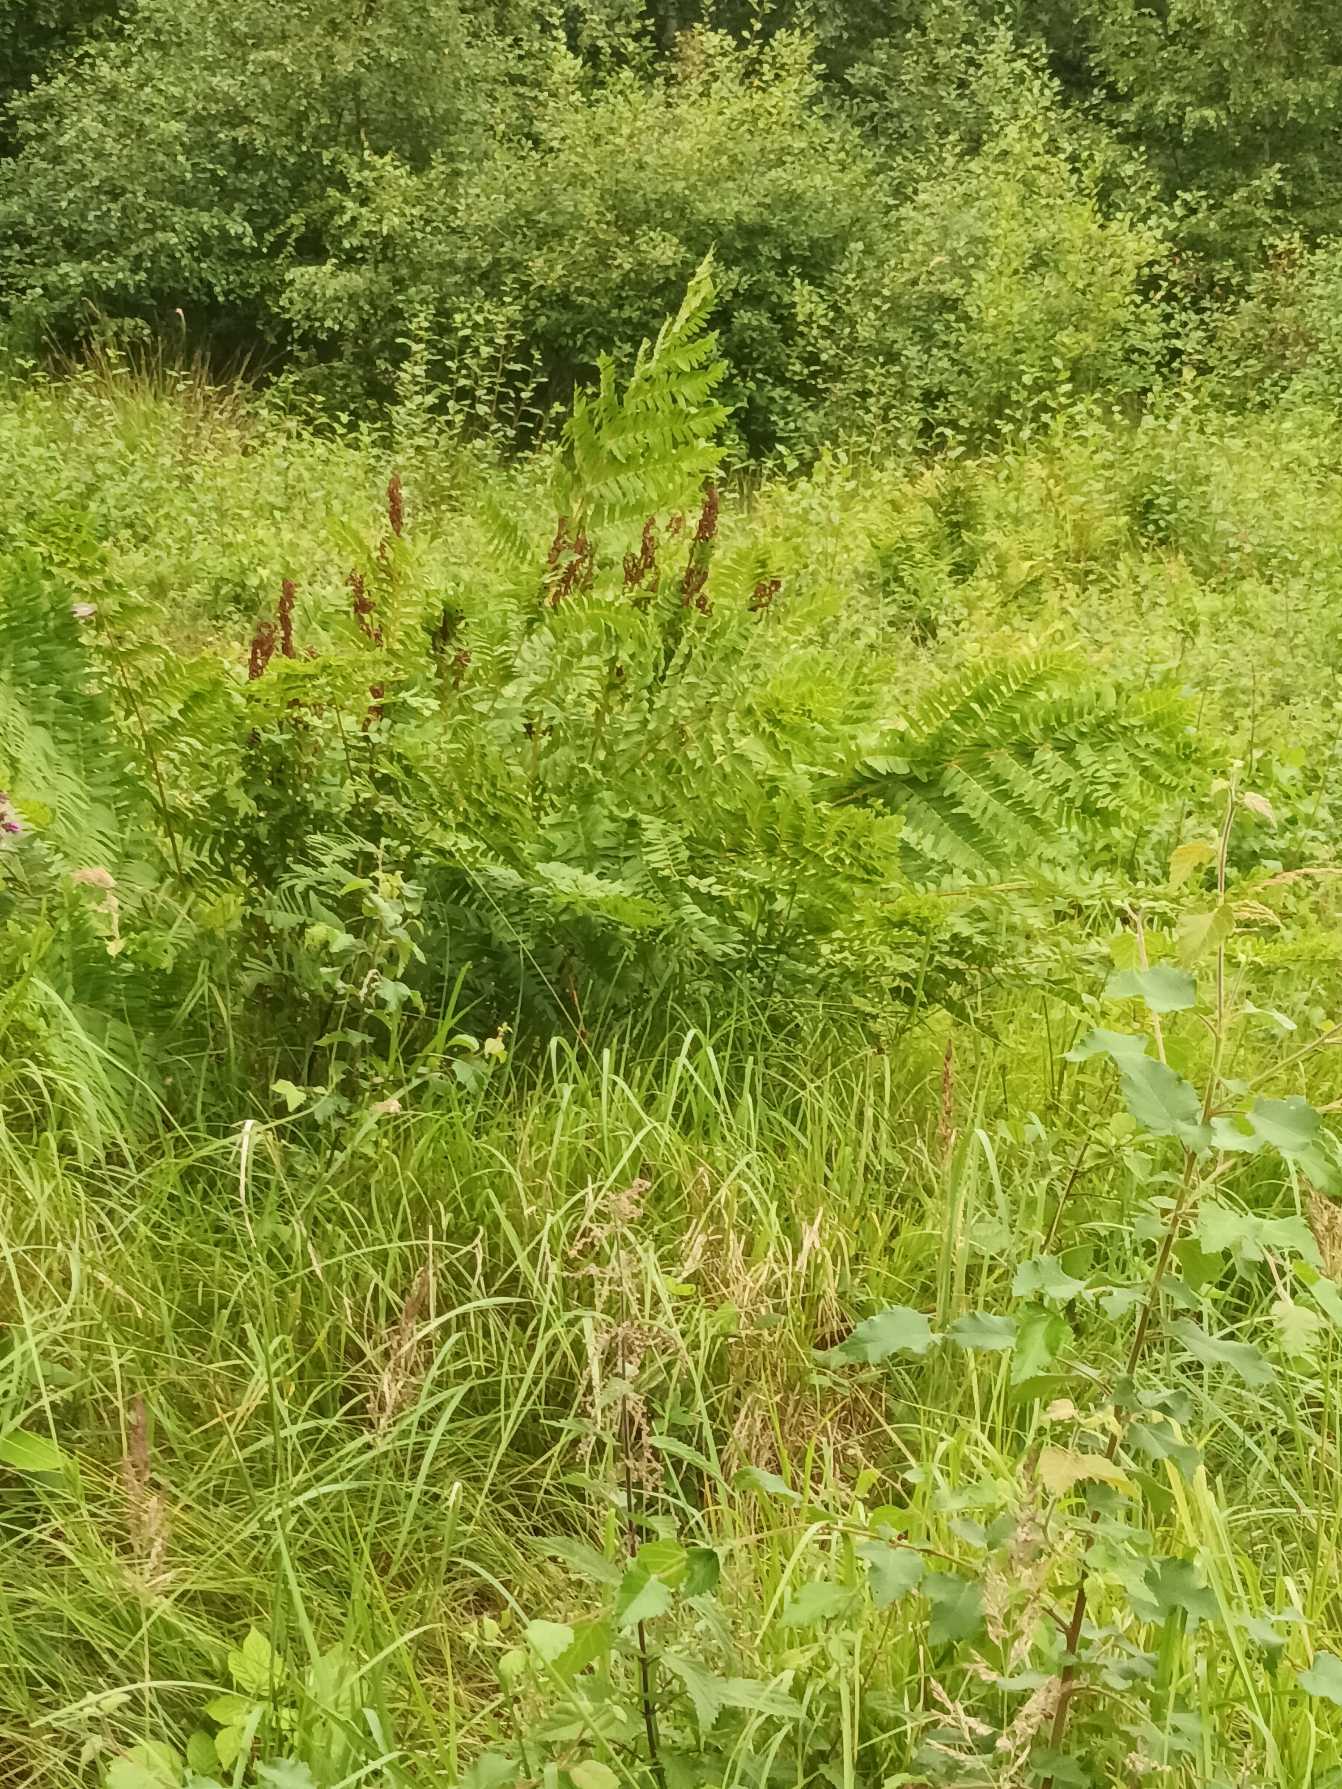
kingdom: Plantae
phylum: Tracheophyta
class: Polypodiopsida
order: Osmundales
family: Osmundaceae
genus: Osmunda
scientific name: Osmunda regalis
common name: Kongebregne
